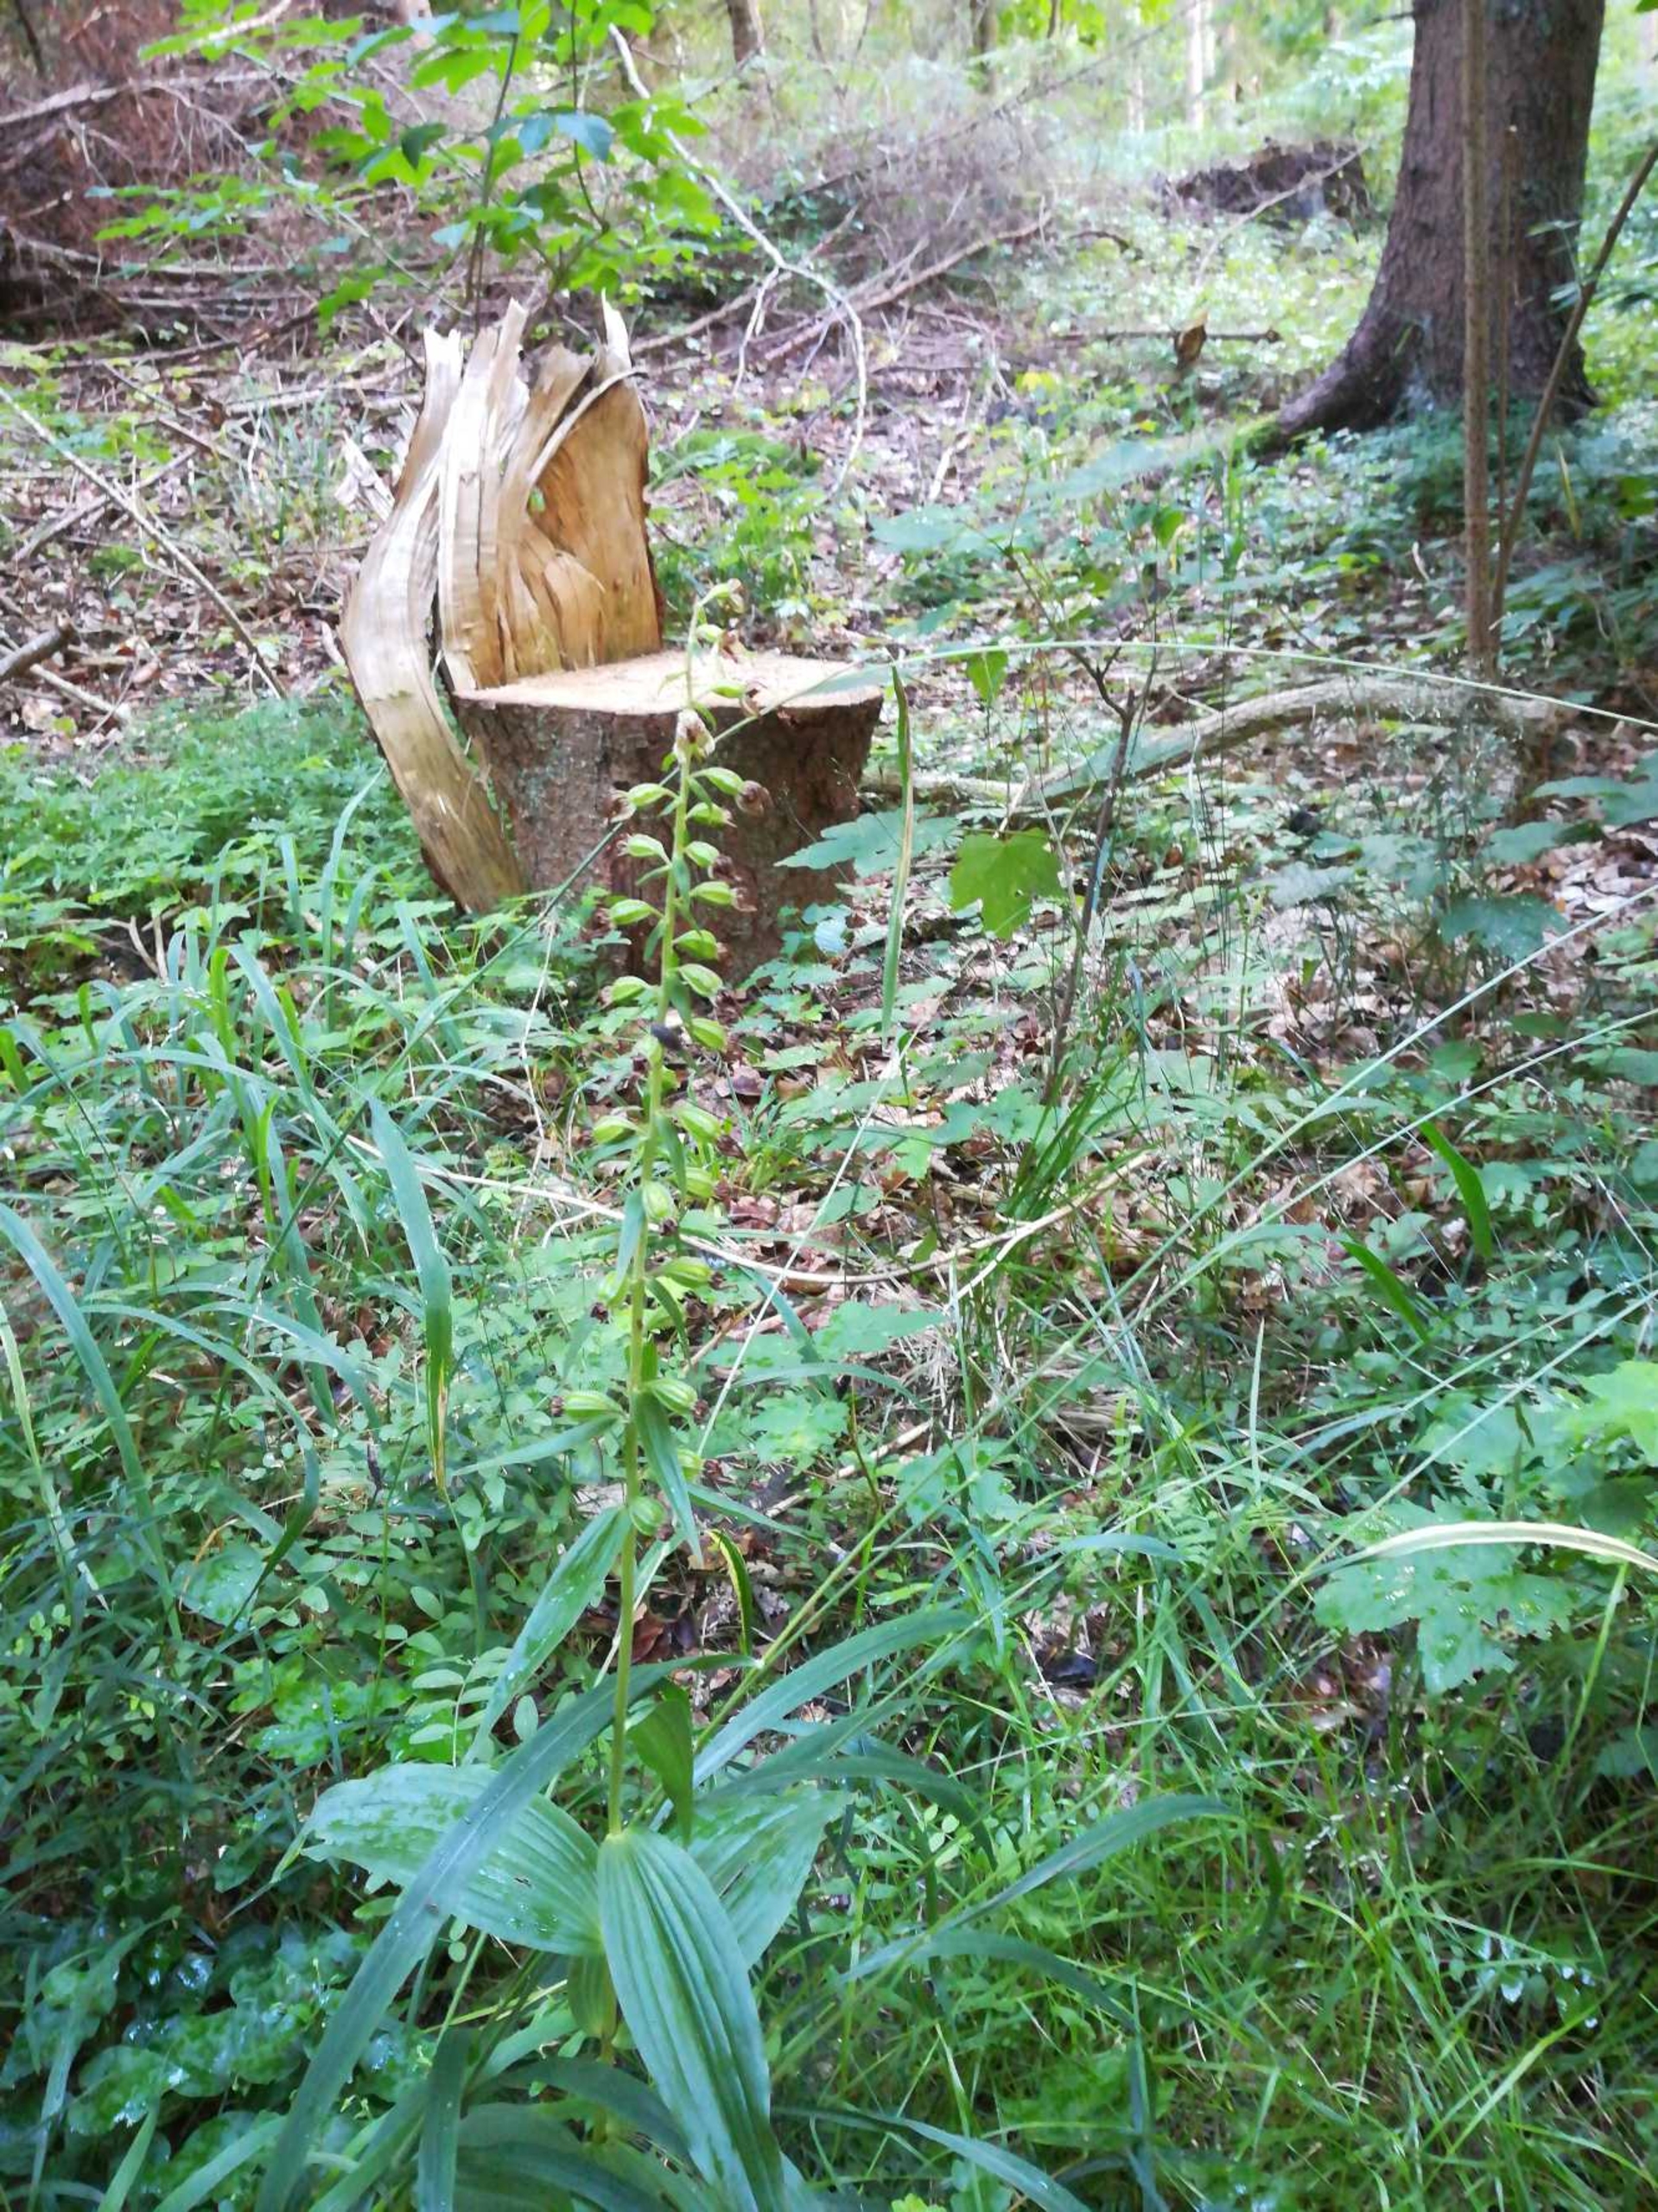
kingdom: Plantae
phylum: Tracheophyta
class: Liliopsida
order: Asparagales
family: Orchidaceae
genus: Epipactis
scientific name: Epipactis helleborine
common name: Skov-hullæbe
